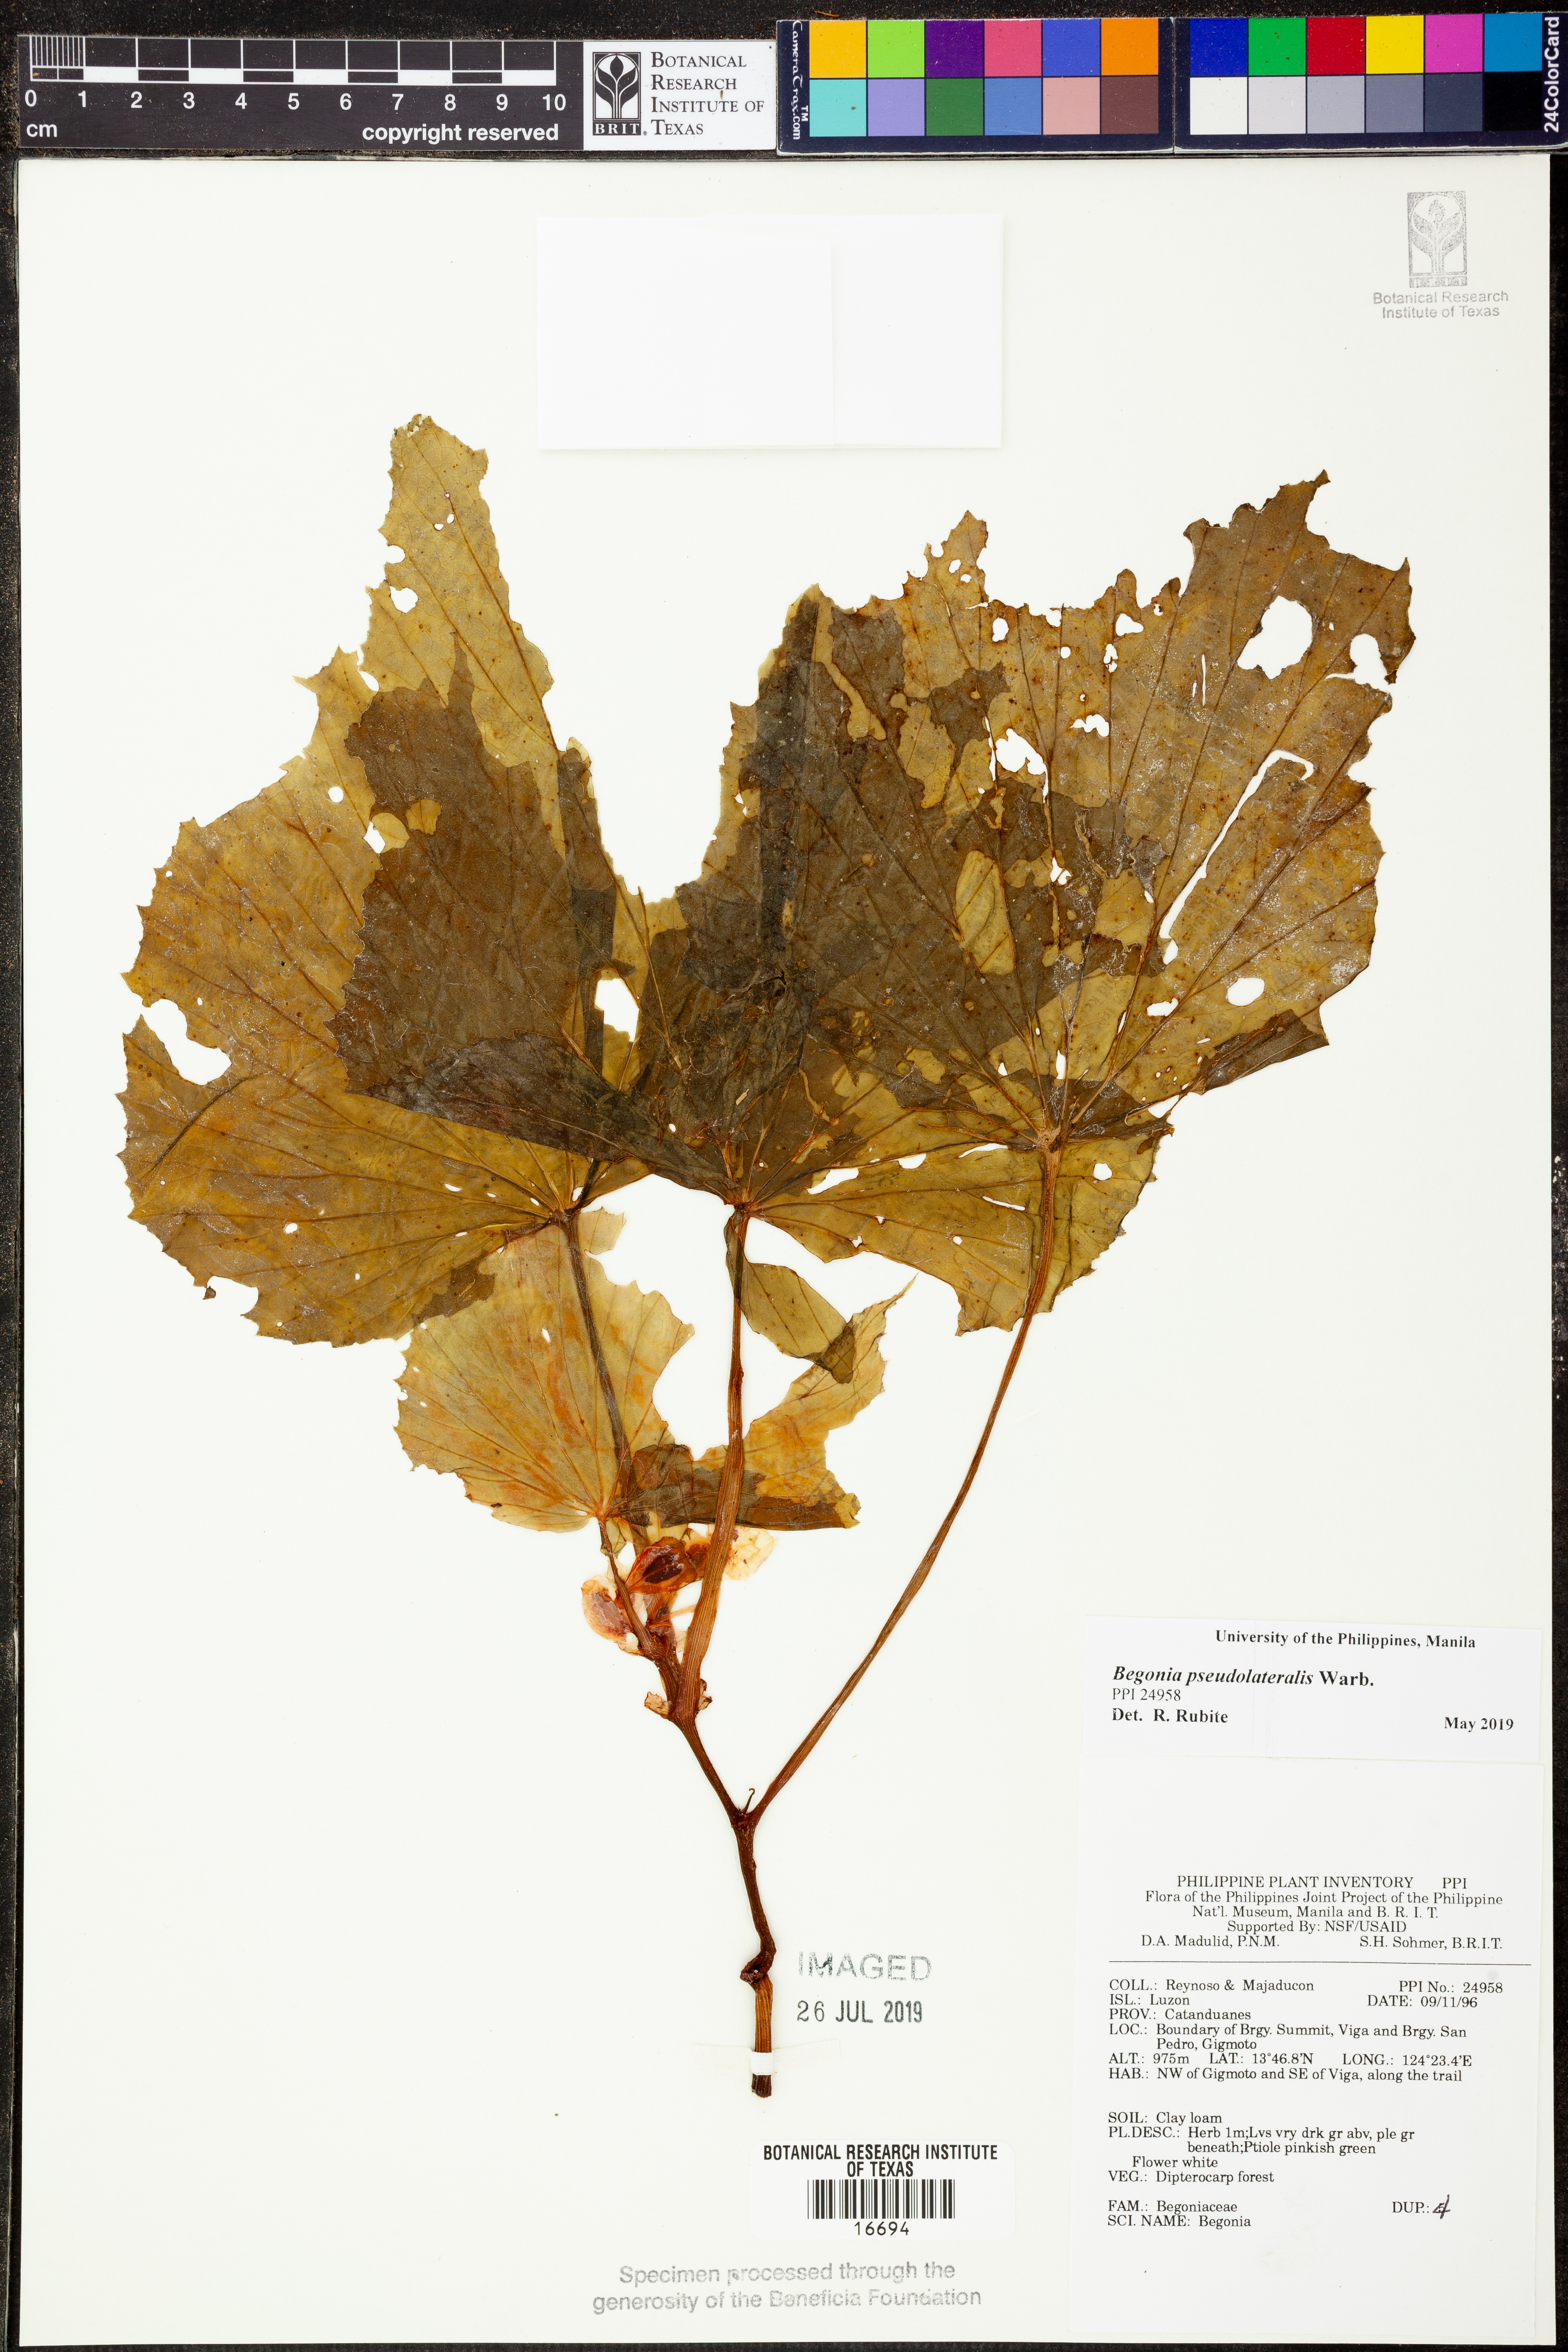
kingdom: Plantae
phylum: Tracheophyta
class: Magnoliopsida
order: Cucurbitales
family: Begoniaceae
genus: Begonia
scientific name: Begonia
